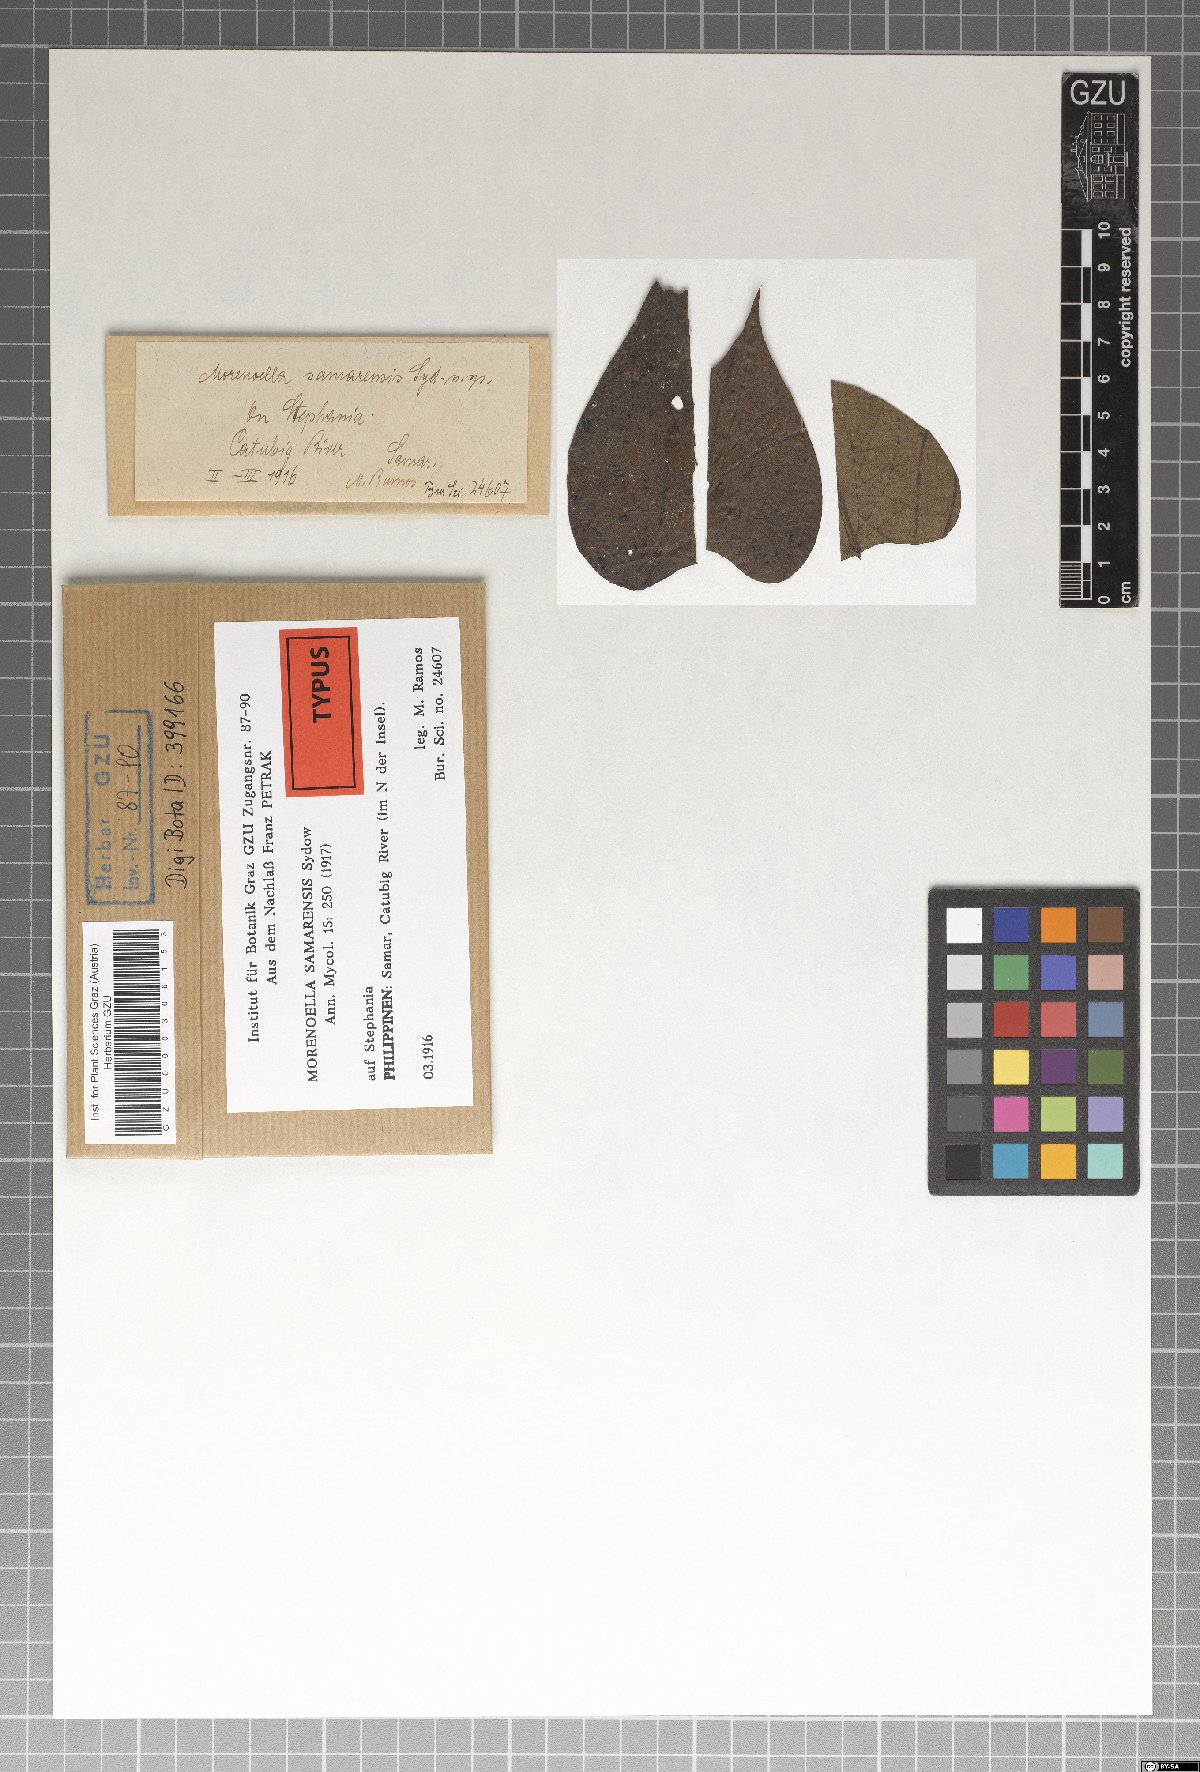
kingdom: Fungi
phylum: Ascomycota
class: Dothideomycetes
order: Asterinales
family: Asterinaceae
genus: Morenoella
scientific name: Morenoella samarensis
